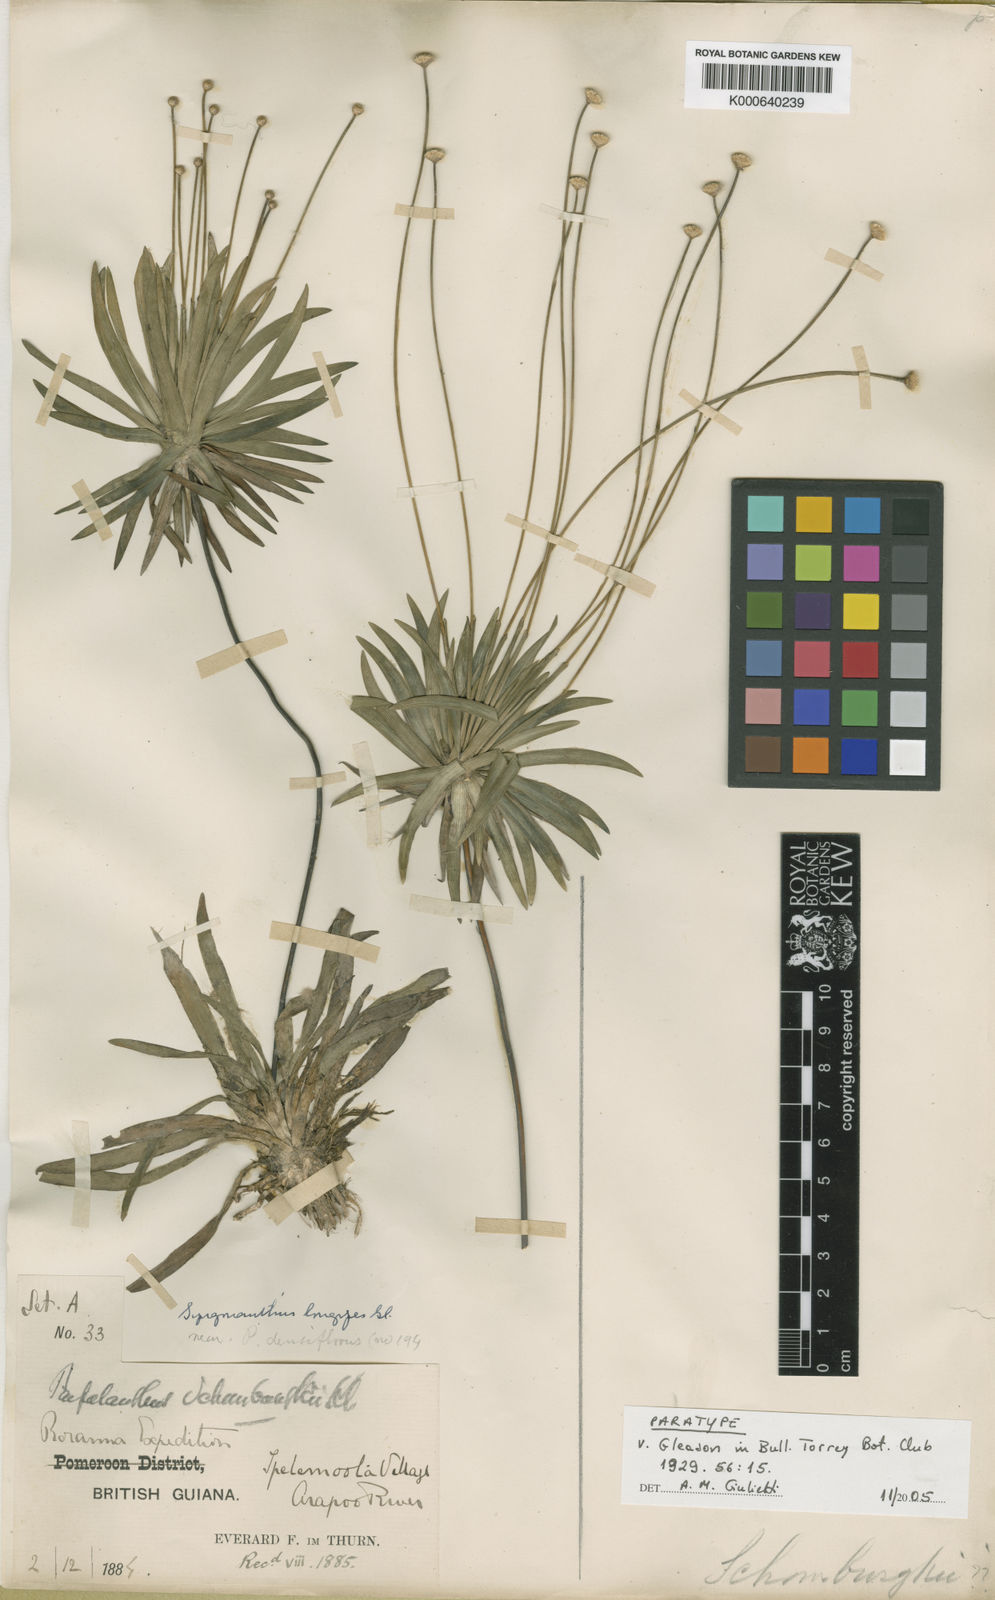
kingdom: Plantae
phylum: Tracheophyta
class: Liliopsida
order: Poales
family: Eriocaulaceae
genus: Syngonanthus
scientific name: Syngonanthus longipes
